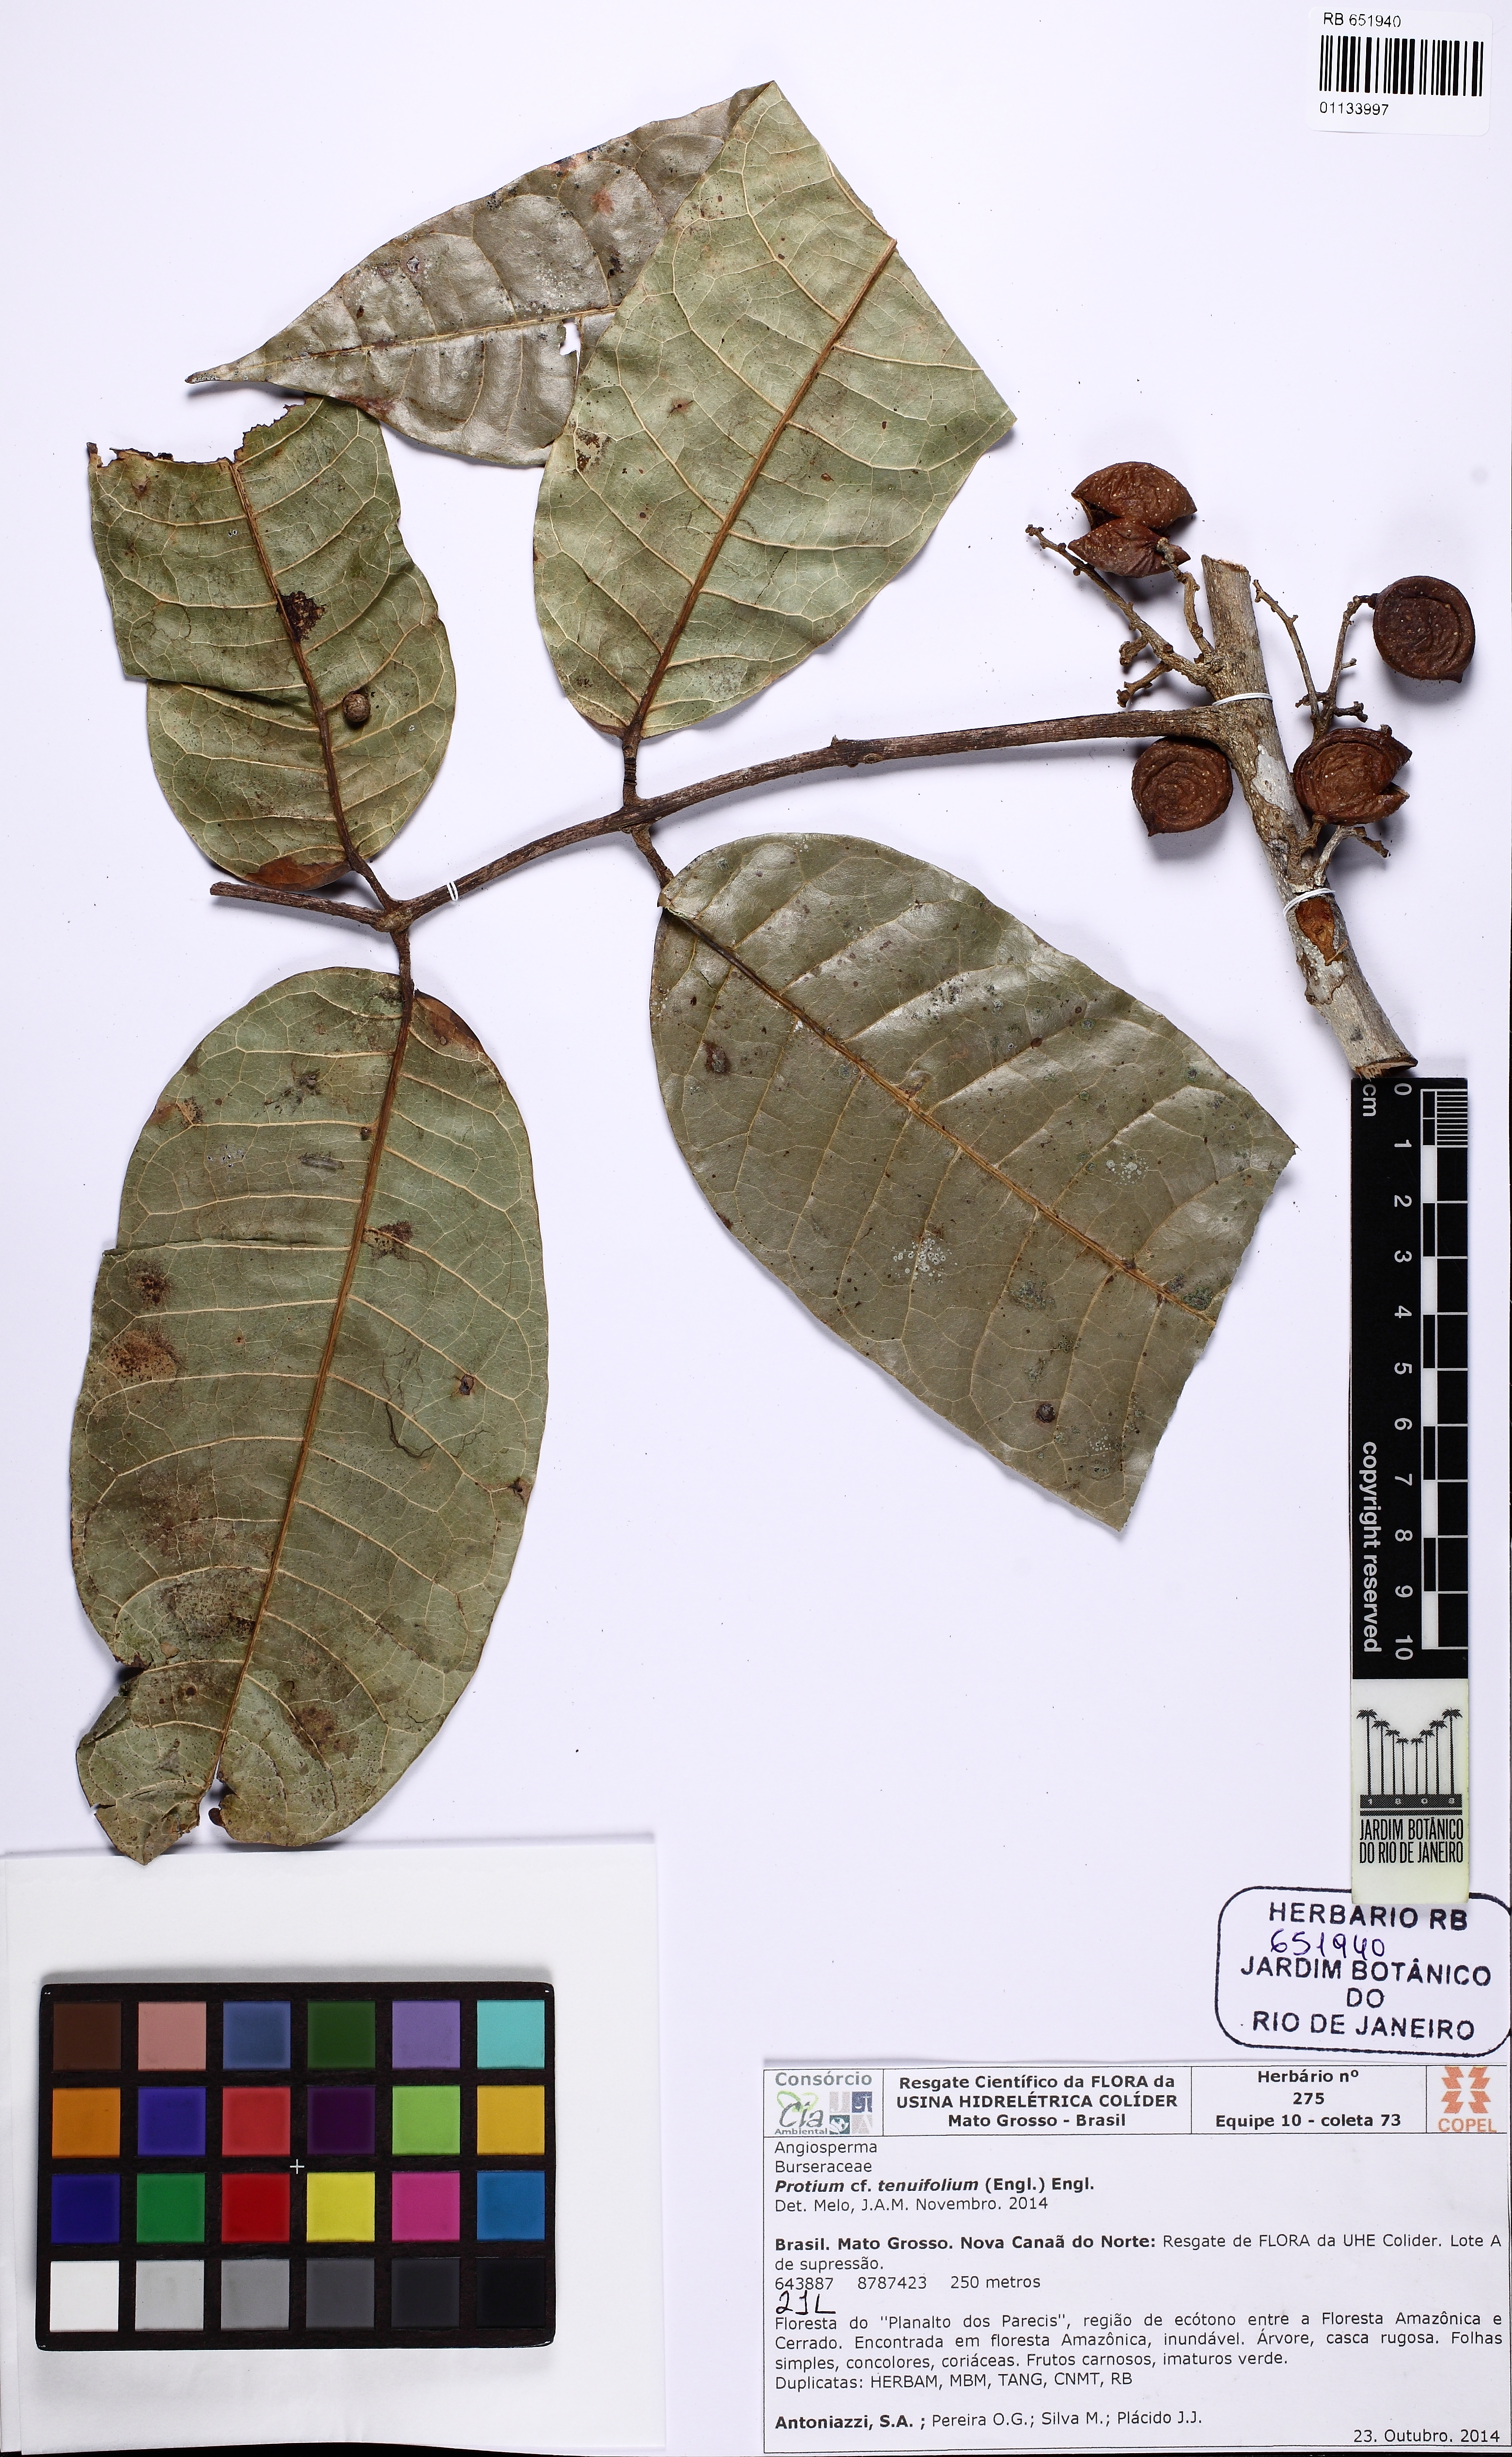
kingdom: Plantae
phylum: Tracheophyta
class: Magnoliopsida
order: Sapindales
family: Burseraceae
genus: Protium
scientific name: Protium tenuifolium
